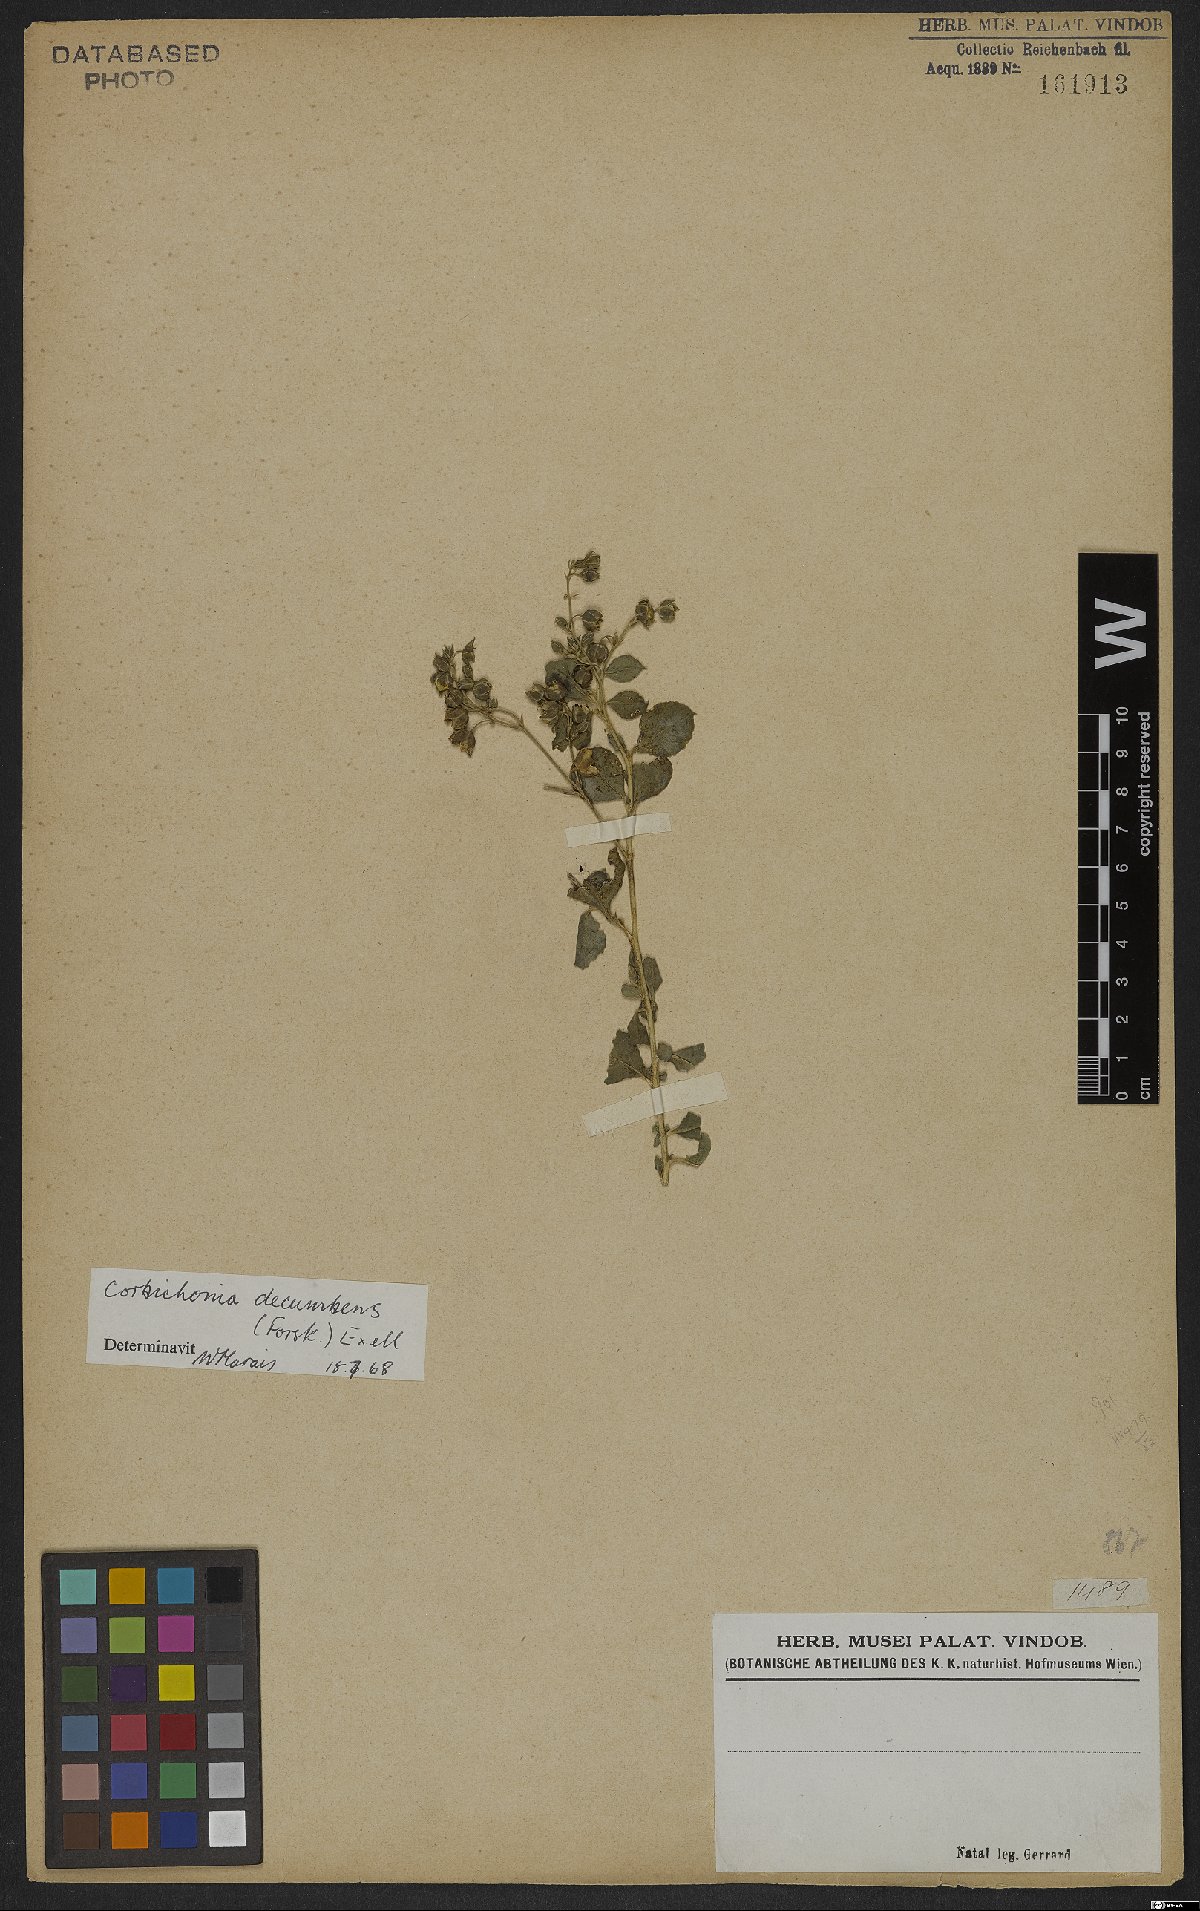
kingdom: Plantae
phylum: Tracheophyta
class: Magnoliopsida
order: Caryophyllales
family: Corbichoniaceae
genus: Corbichonia
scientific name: Corbichonia decumbens
